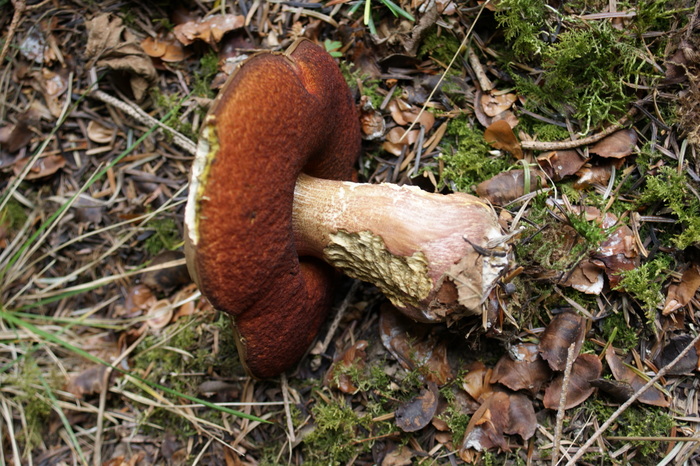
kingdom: Fungi
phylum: Basidiomycota
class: Agaricomycetes
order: Boletales
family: Boletaceae
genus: Neoboletus
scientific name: Neoboletus erythropus
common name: punktstokket indigorørhat
